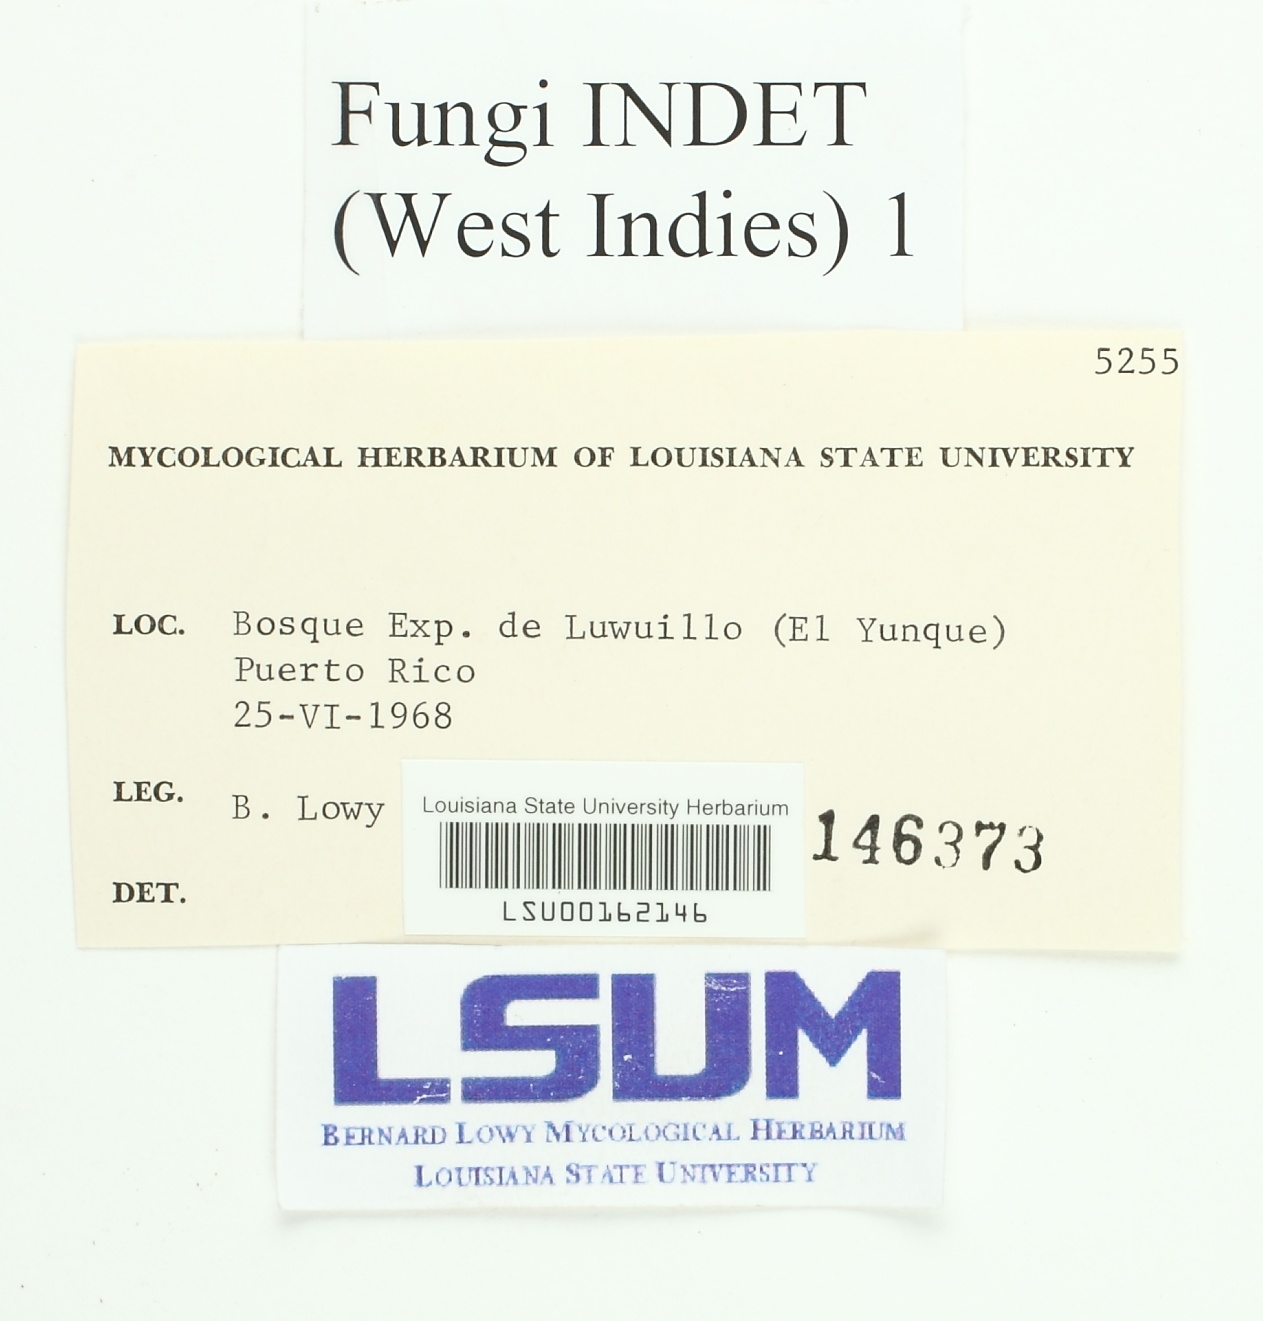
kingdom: Fungi
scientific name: Fungi
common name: Fungi
